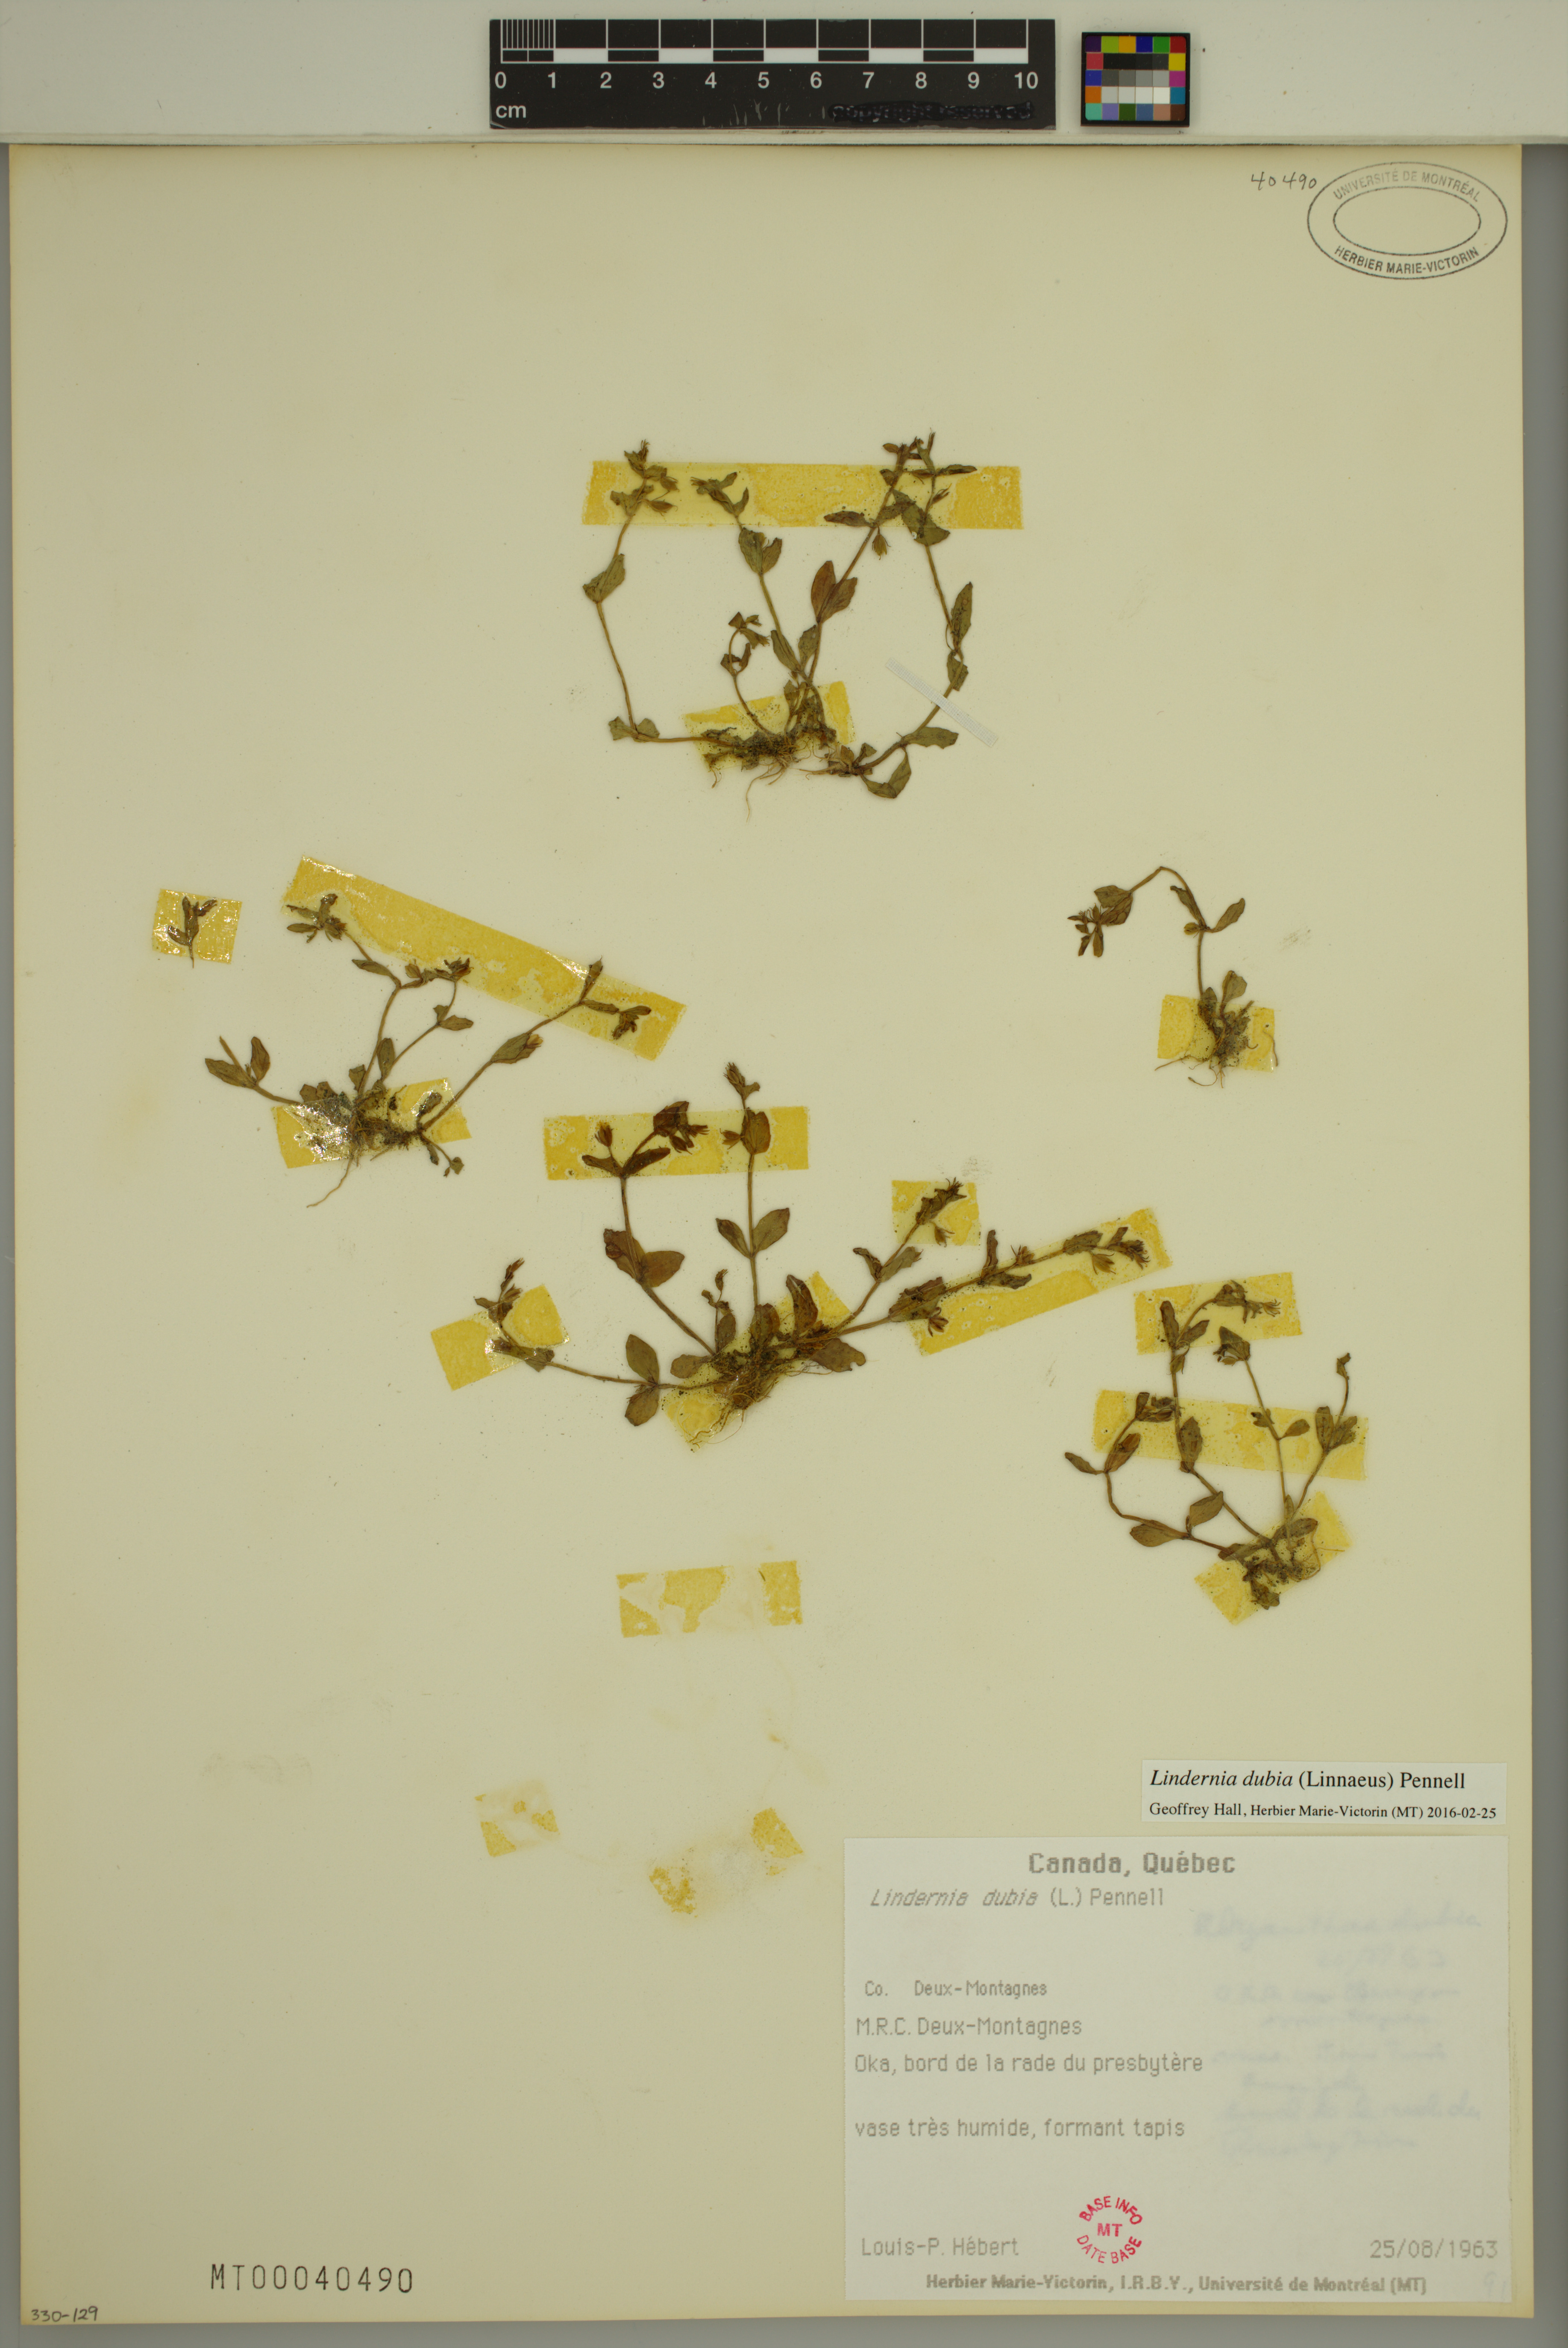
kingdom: Plantae
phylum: Tracheophyta
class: Magnoliopsida
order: Lamiales
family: Linderniaceae
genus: Lindernia
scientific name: Lindernia dubia
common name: Annual false pimpernel
